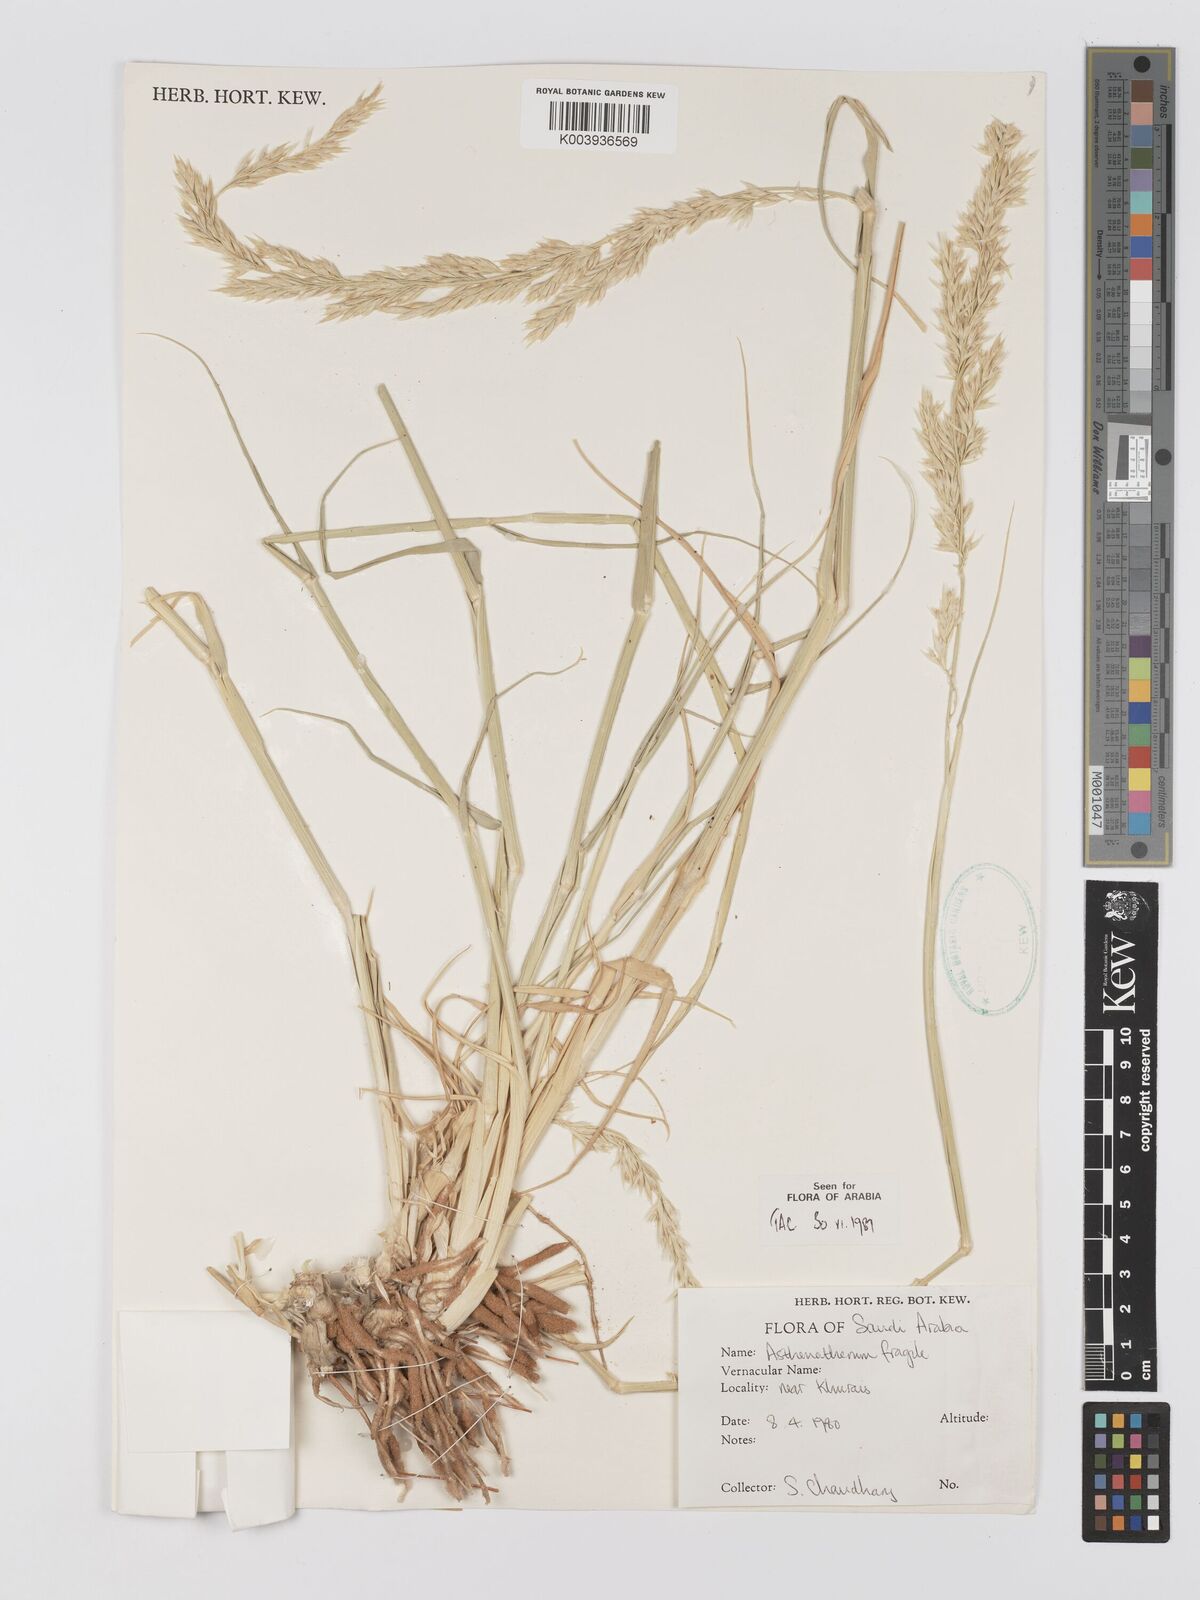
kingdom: Plantae
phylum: Tracheophyta
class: Liliopsida
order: Poales
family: Poaceae
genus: Centropodia
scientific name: Centropodia fragilis
